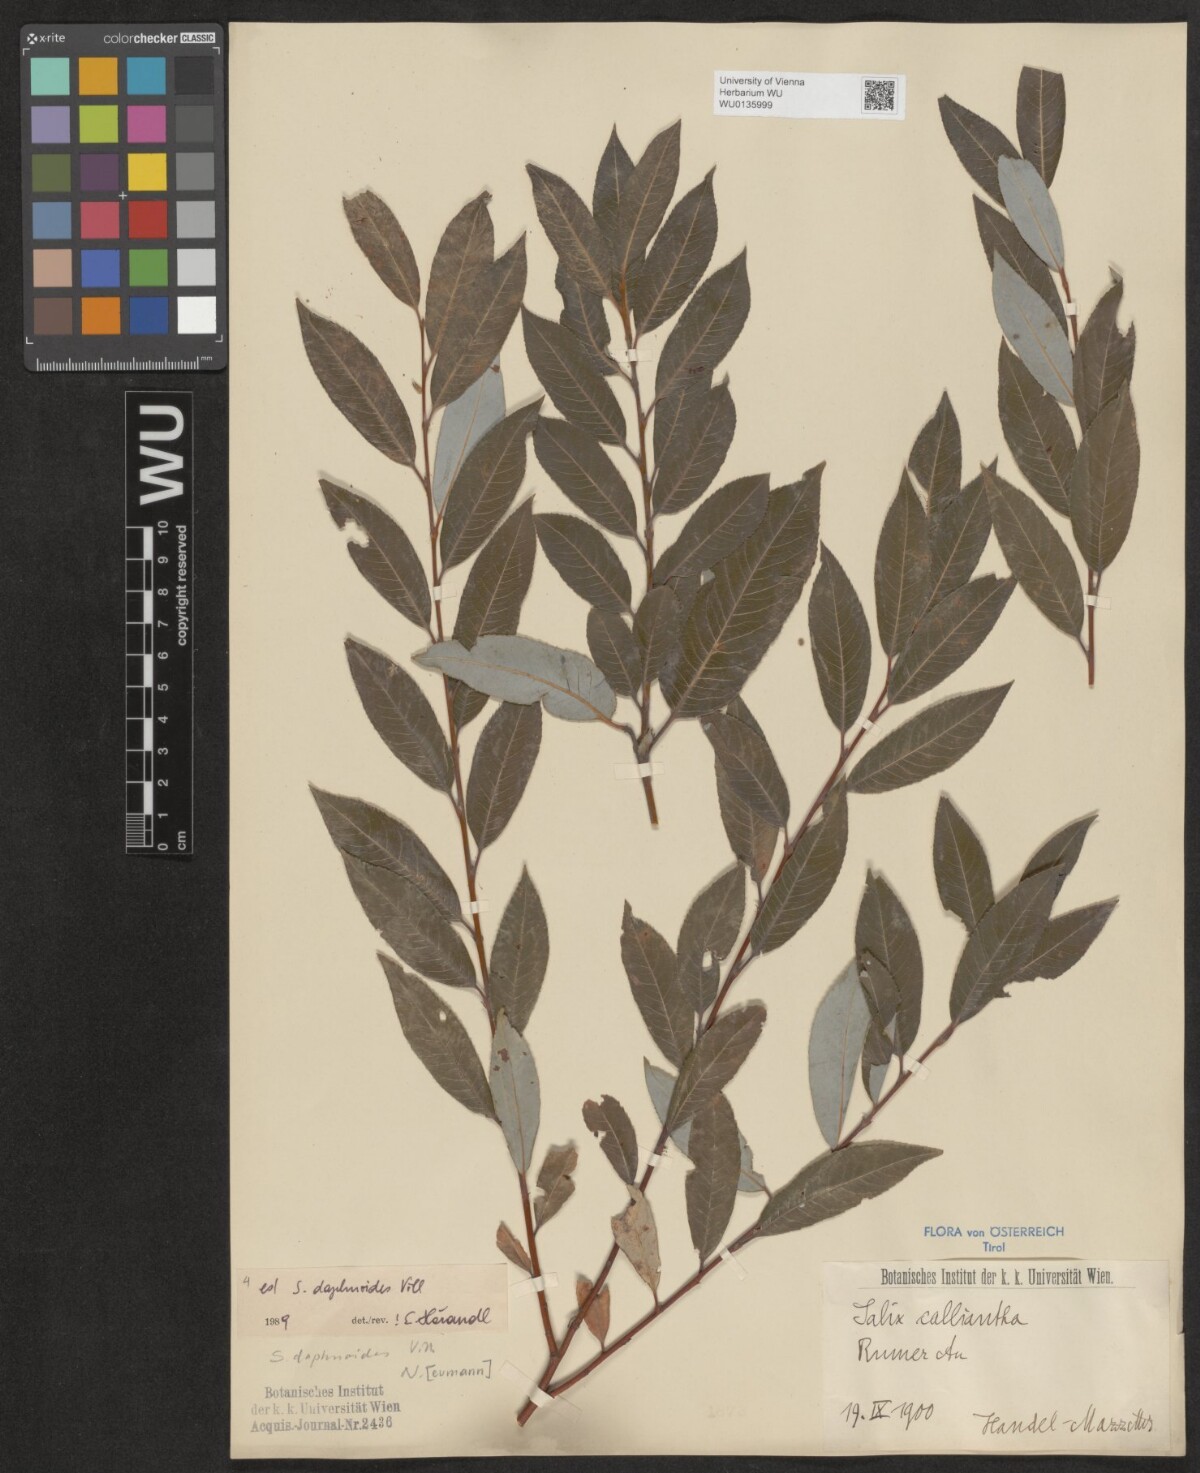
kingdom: Plantae
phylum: Tracheophyta
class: Magnoliopsida
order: Malpighiales
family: Salicaceae
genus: Salix
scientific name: Salix daphnoides
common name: European violet-willow
